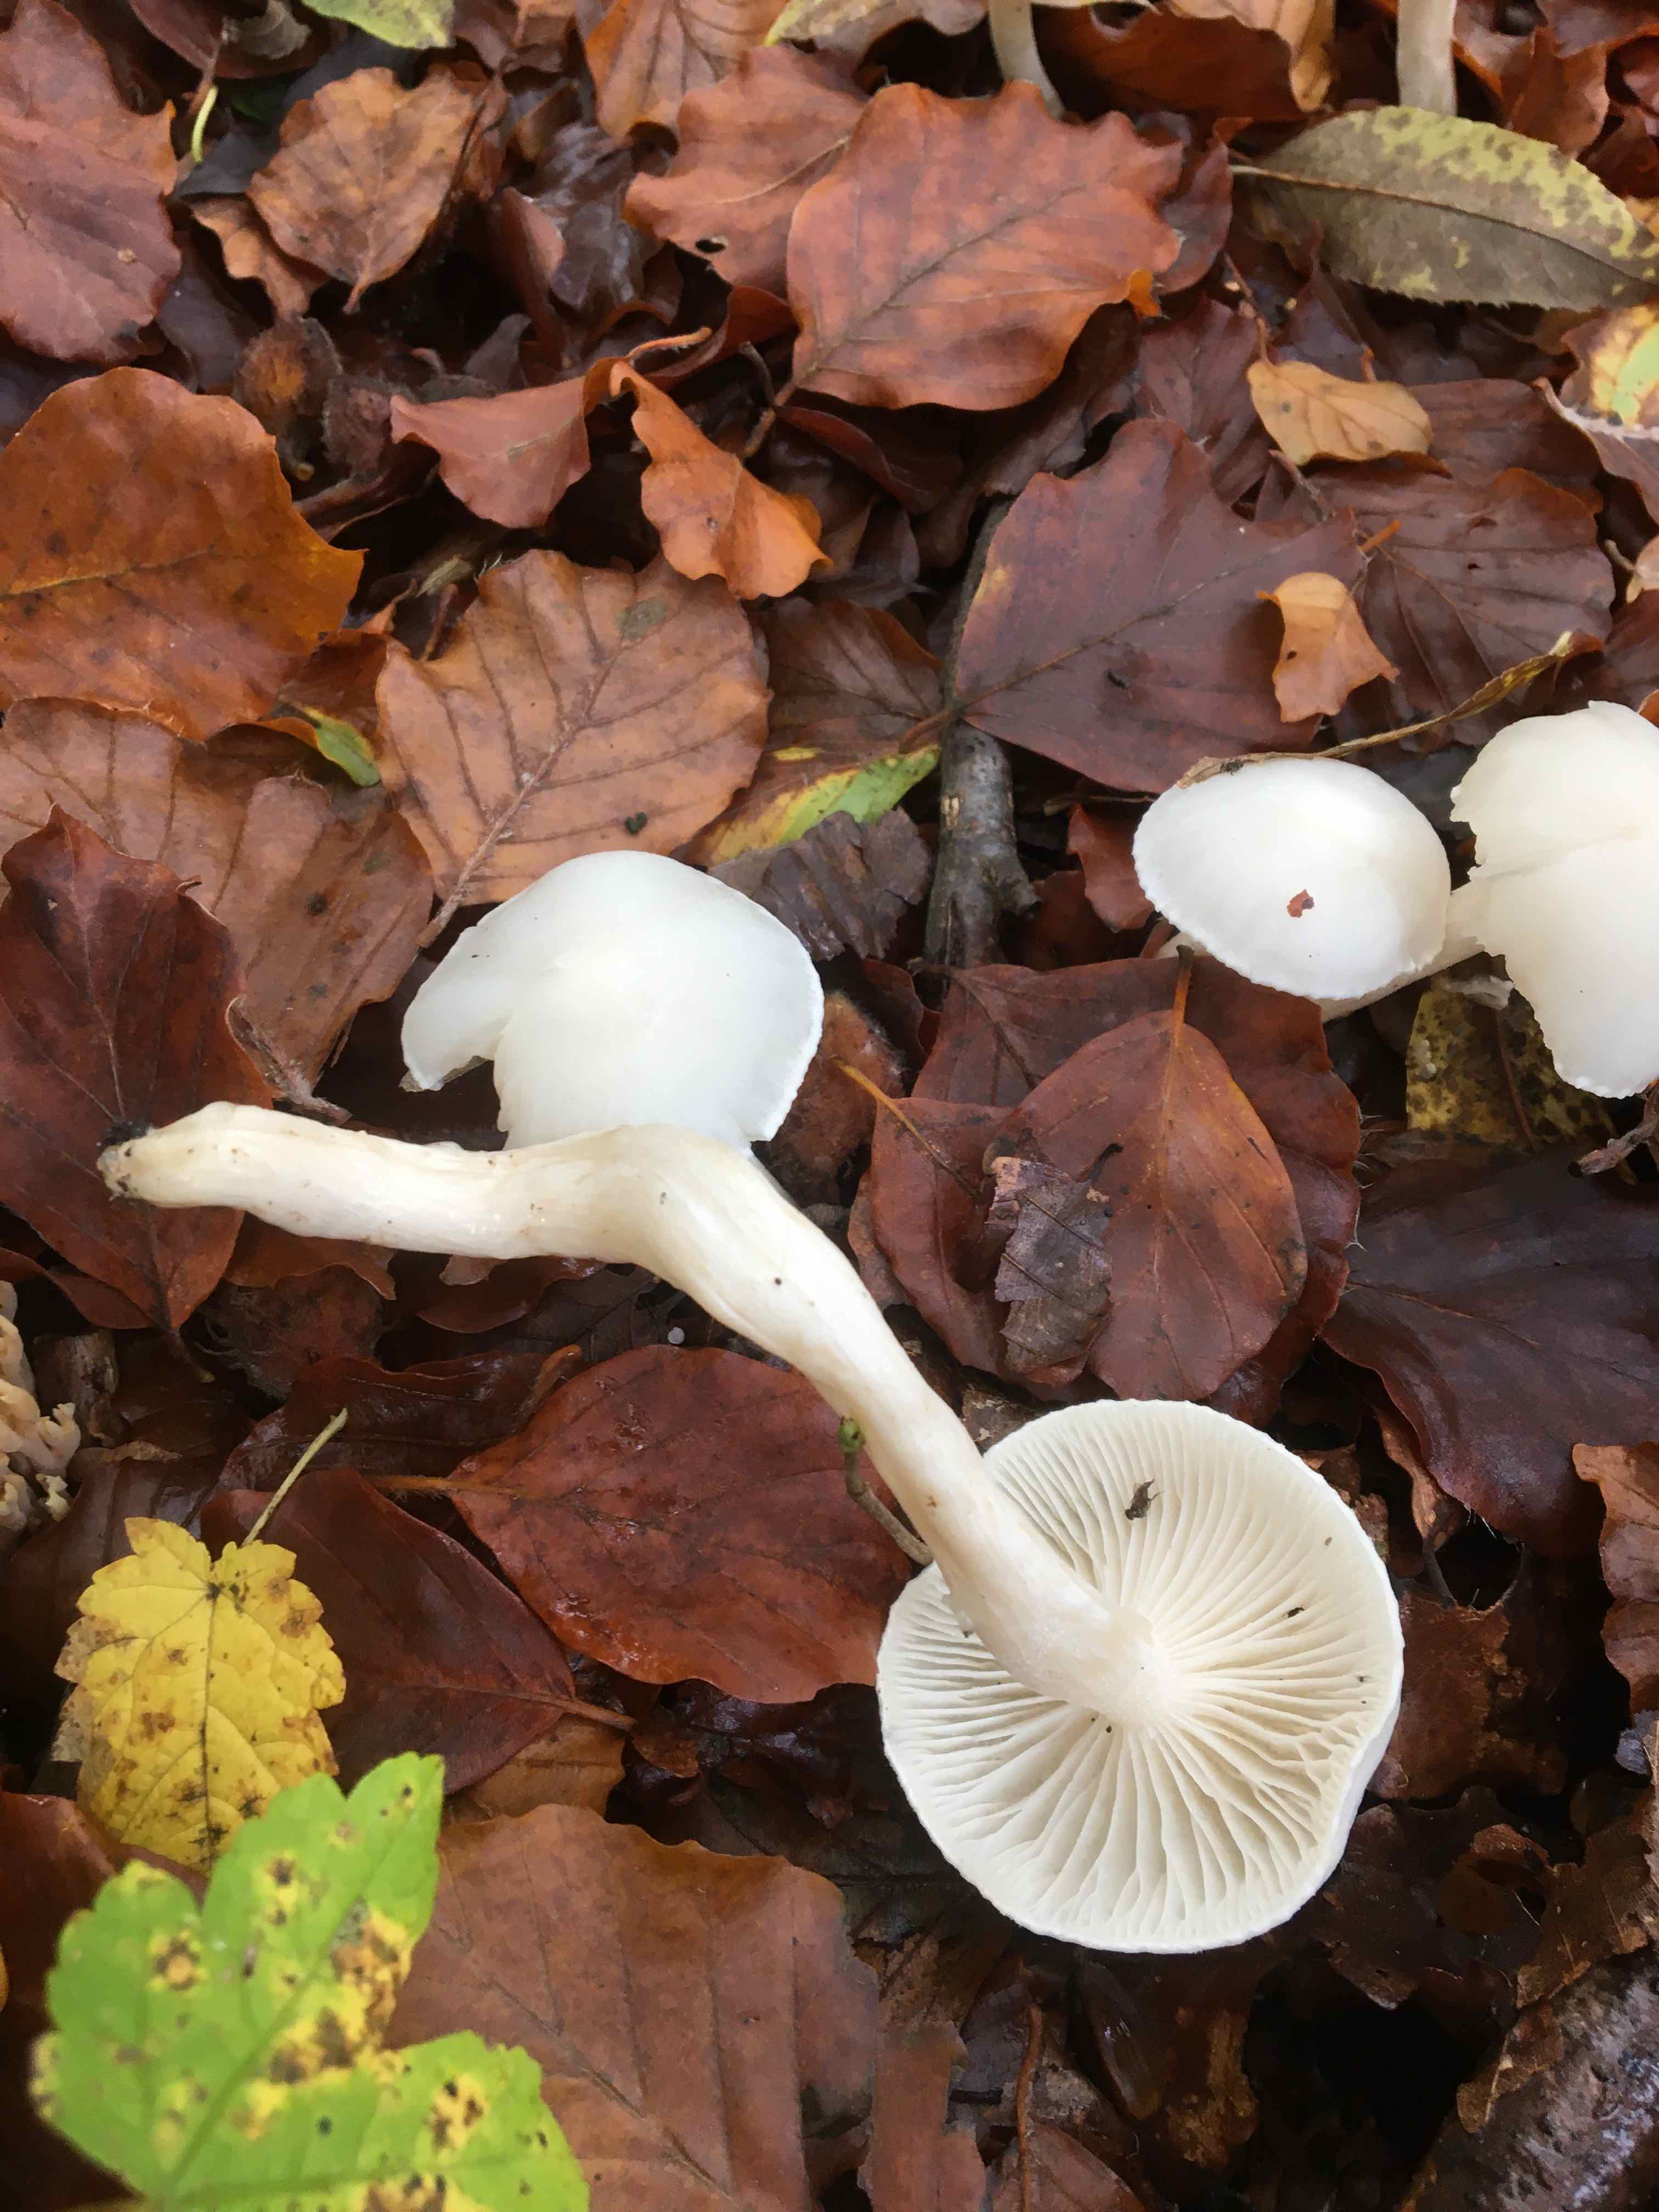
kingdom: Fungi
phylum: Basidiomycota
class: Agaricomycetes
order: Agaricales
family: Hygrophoraceae
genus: Hygrophorus
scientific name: Hygrophorus
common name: sneglehat
